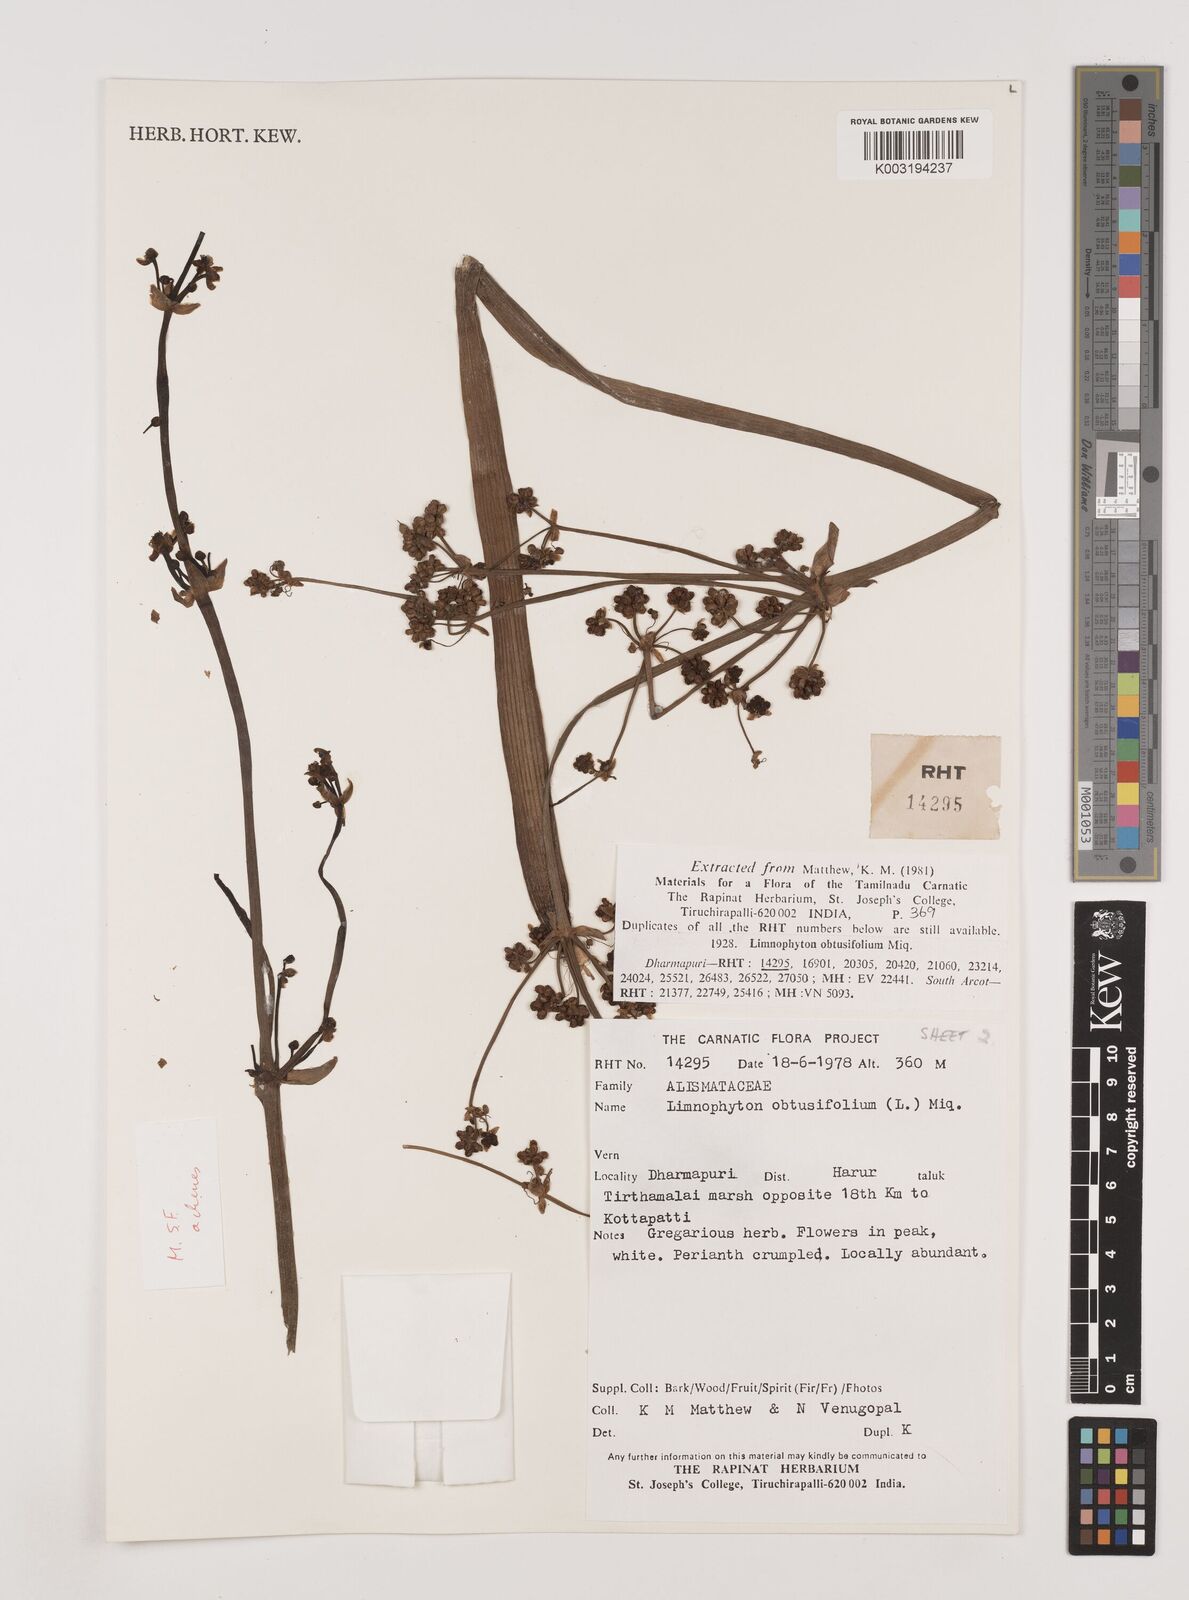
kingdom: Plantae
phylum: Tracheophyta
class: Liliopsida
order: Alismatales
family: Alismataceae
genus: Limnophyton
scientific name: Limnophyton obtusifolium
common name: Arrow head
